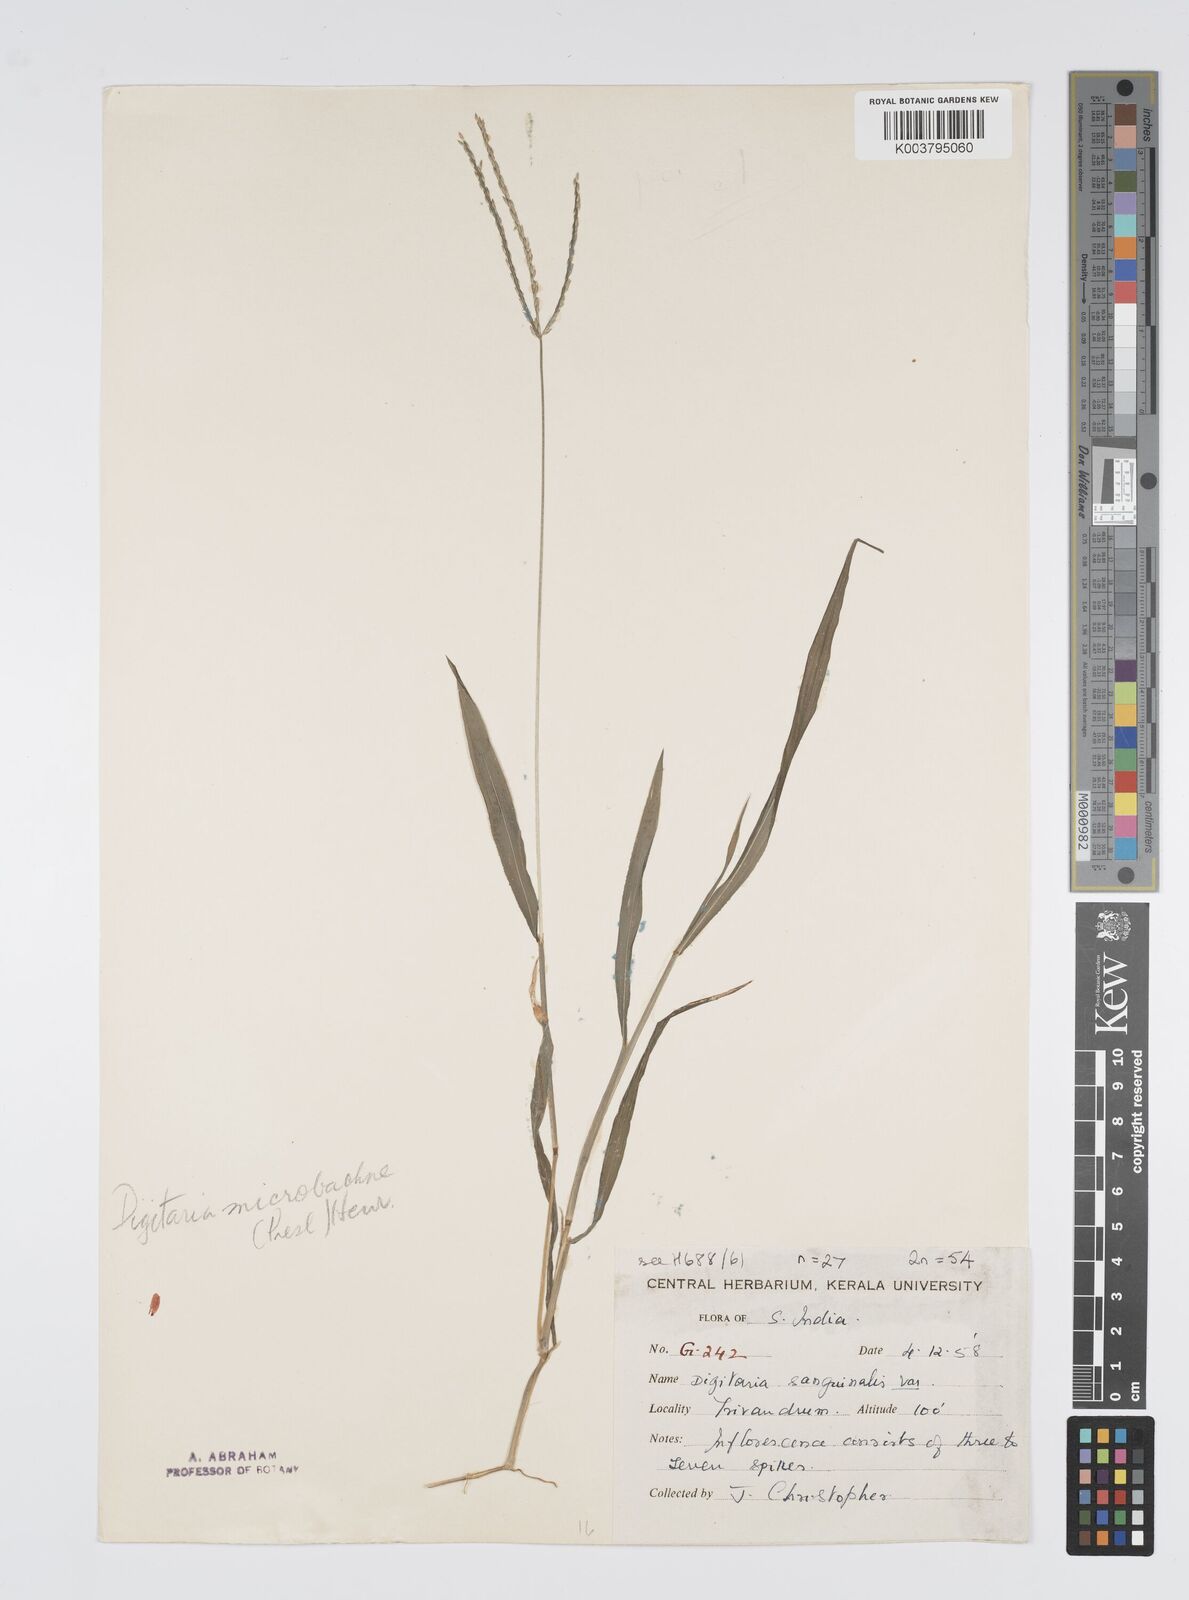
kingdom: Plantae
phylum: Tracheophyta
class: Liliopsida
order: Poales
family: Poaceae
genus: Digitaria
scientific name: Digitaria setigera
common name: East indian crabgrass
